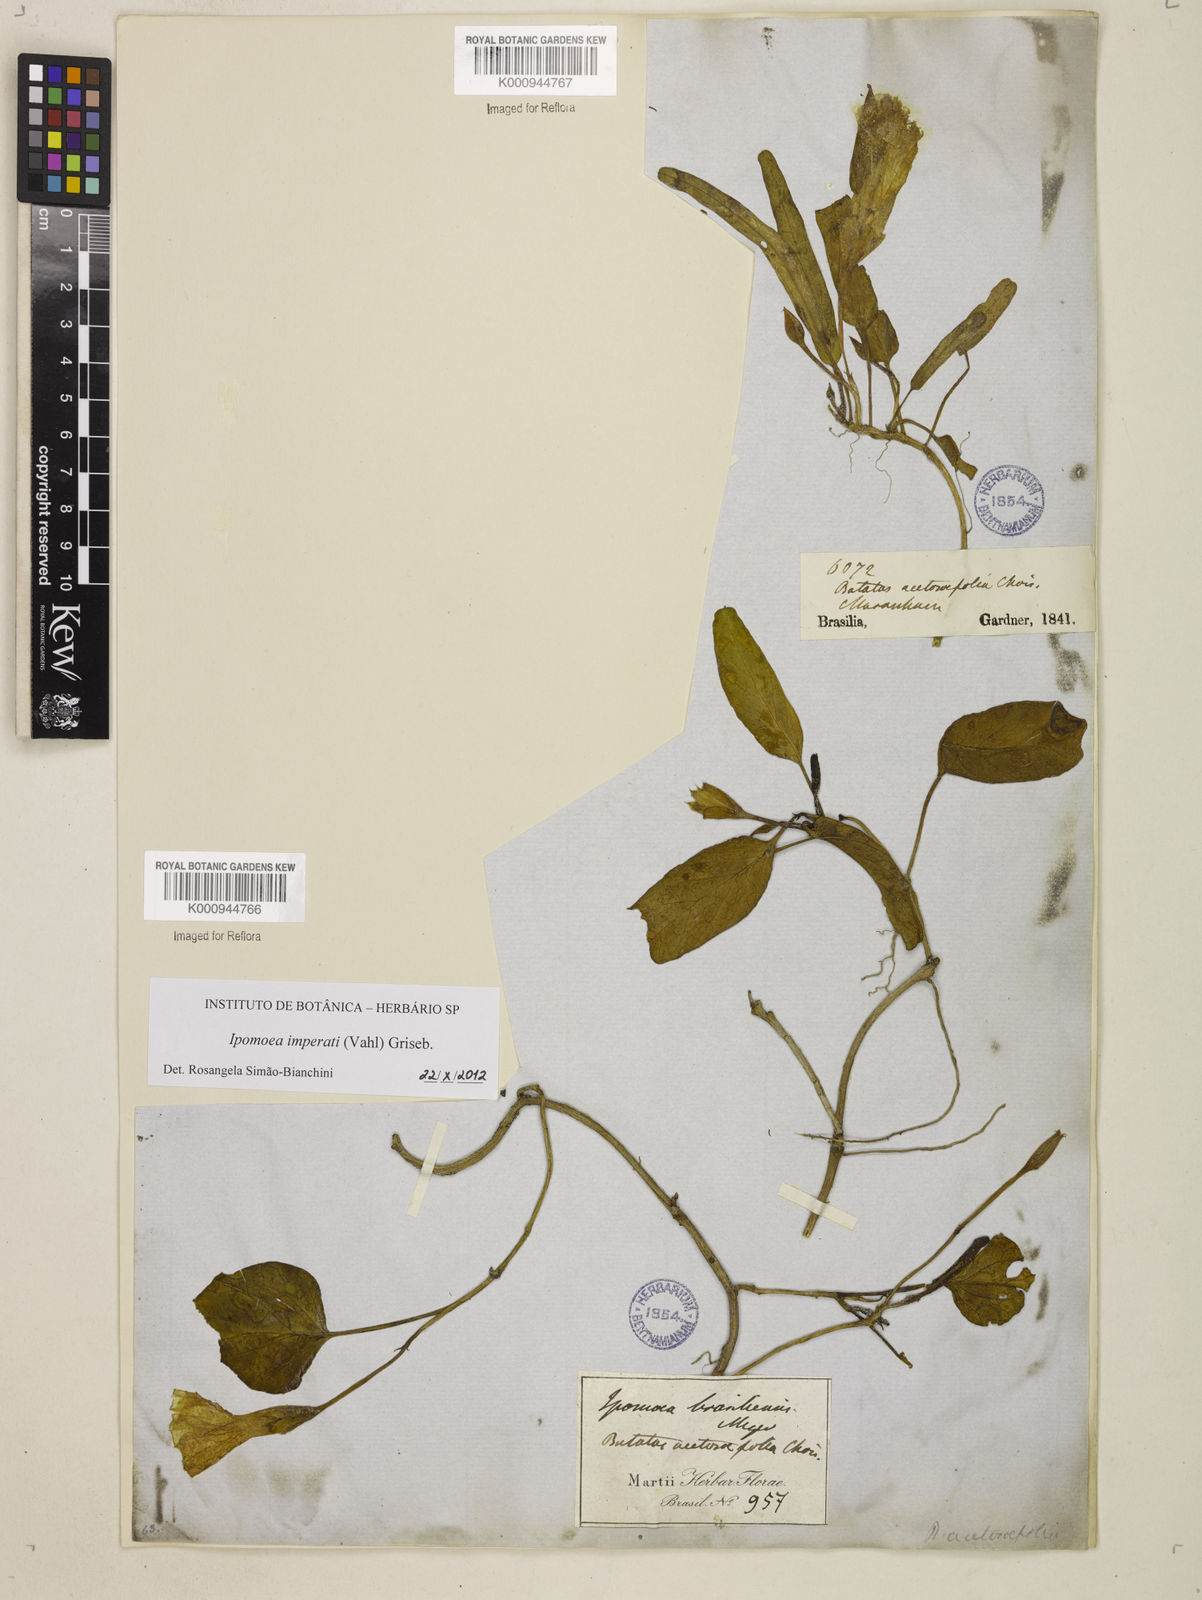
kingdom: Plantae
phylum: Tracheophyta
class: Magnoliopsida
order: Solanales
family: Convolvulaceae
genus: Ipomoea
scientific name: Ipomoea
